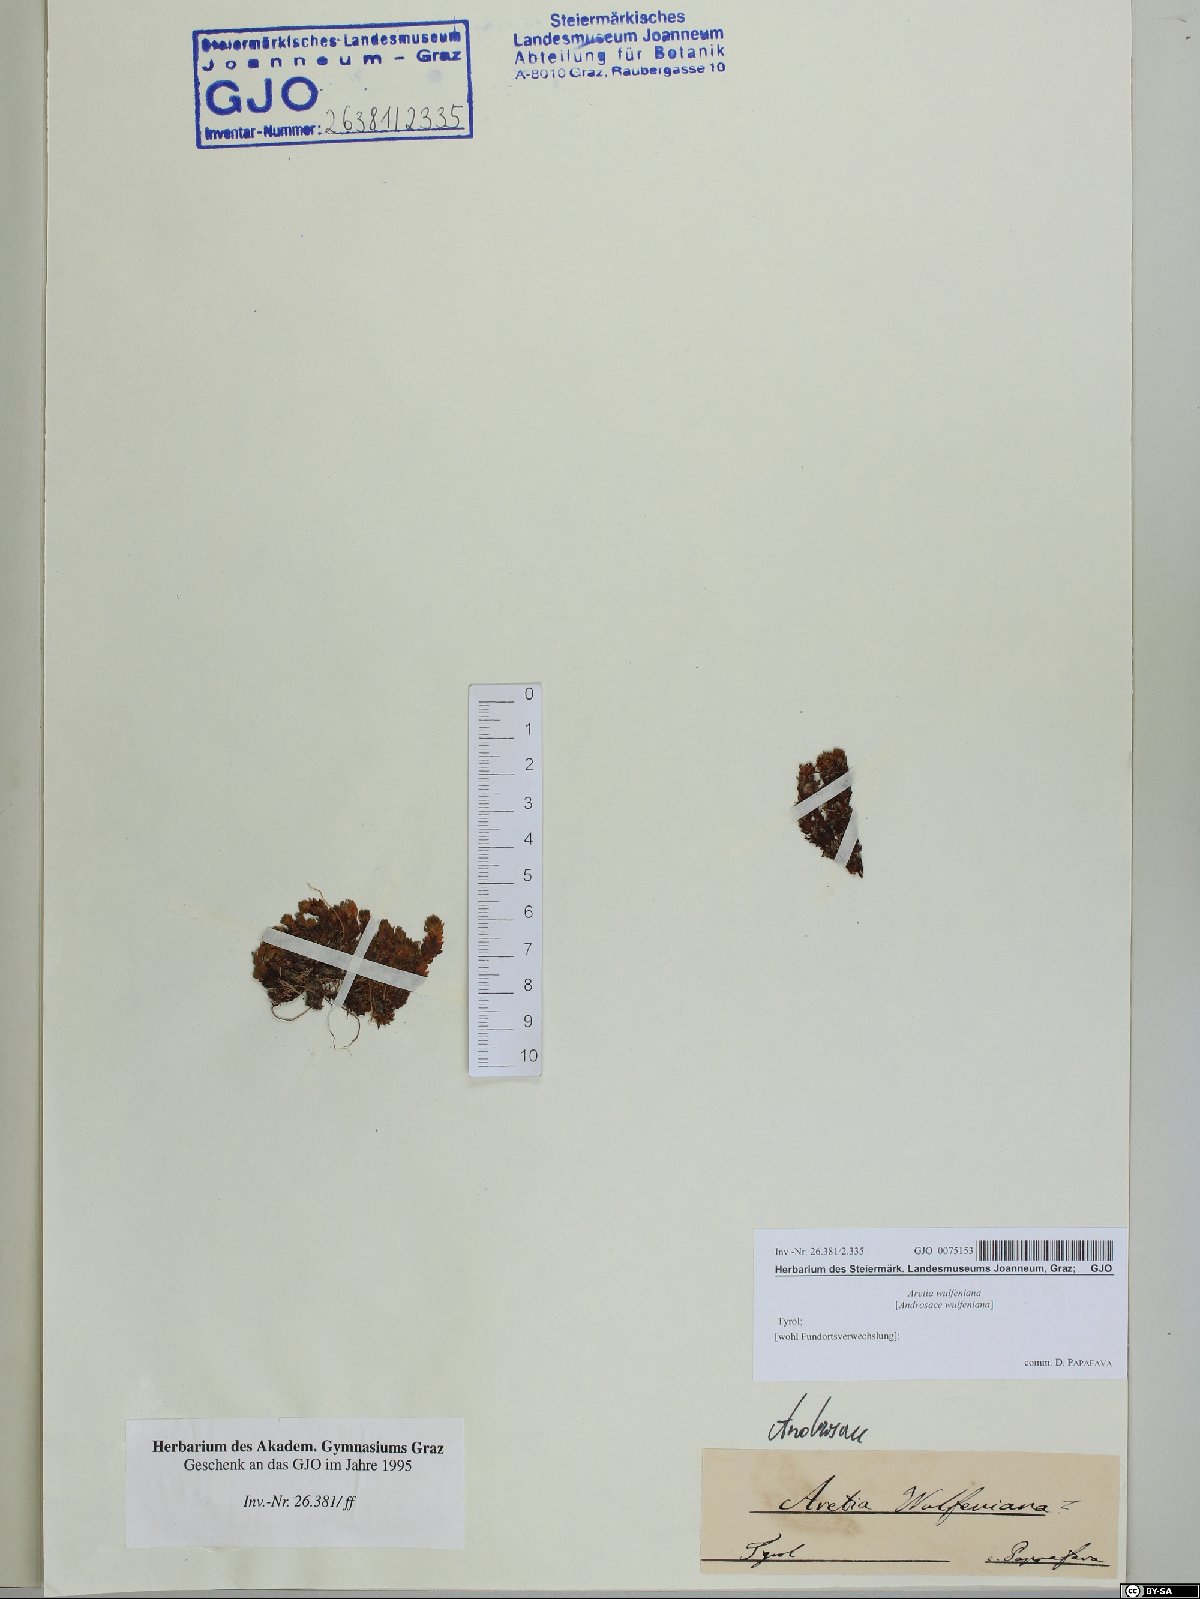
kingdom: Plantae
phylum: Tracheophyta
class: Magnoliopsida
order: Ericales
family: Primulaceae
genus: Androsace
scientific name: Androsace wulfeniana
